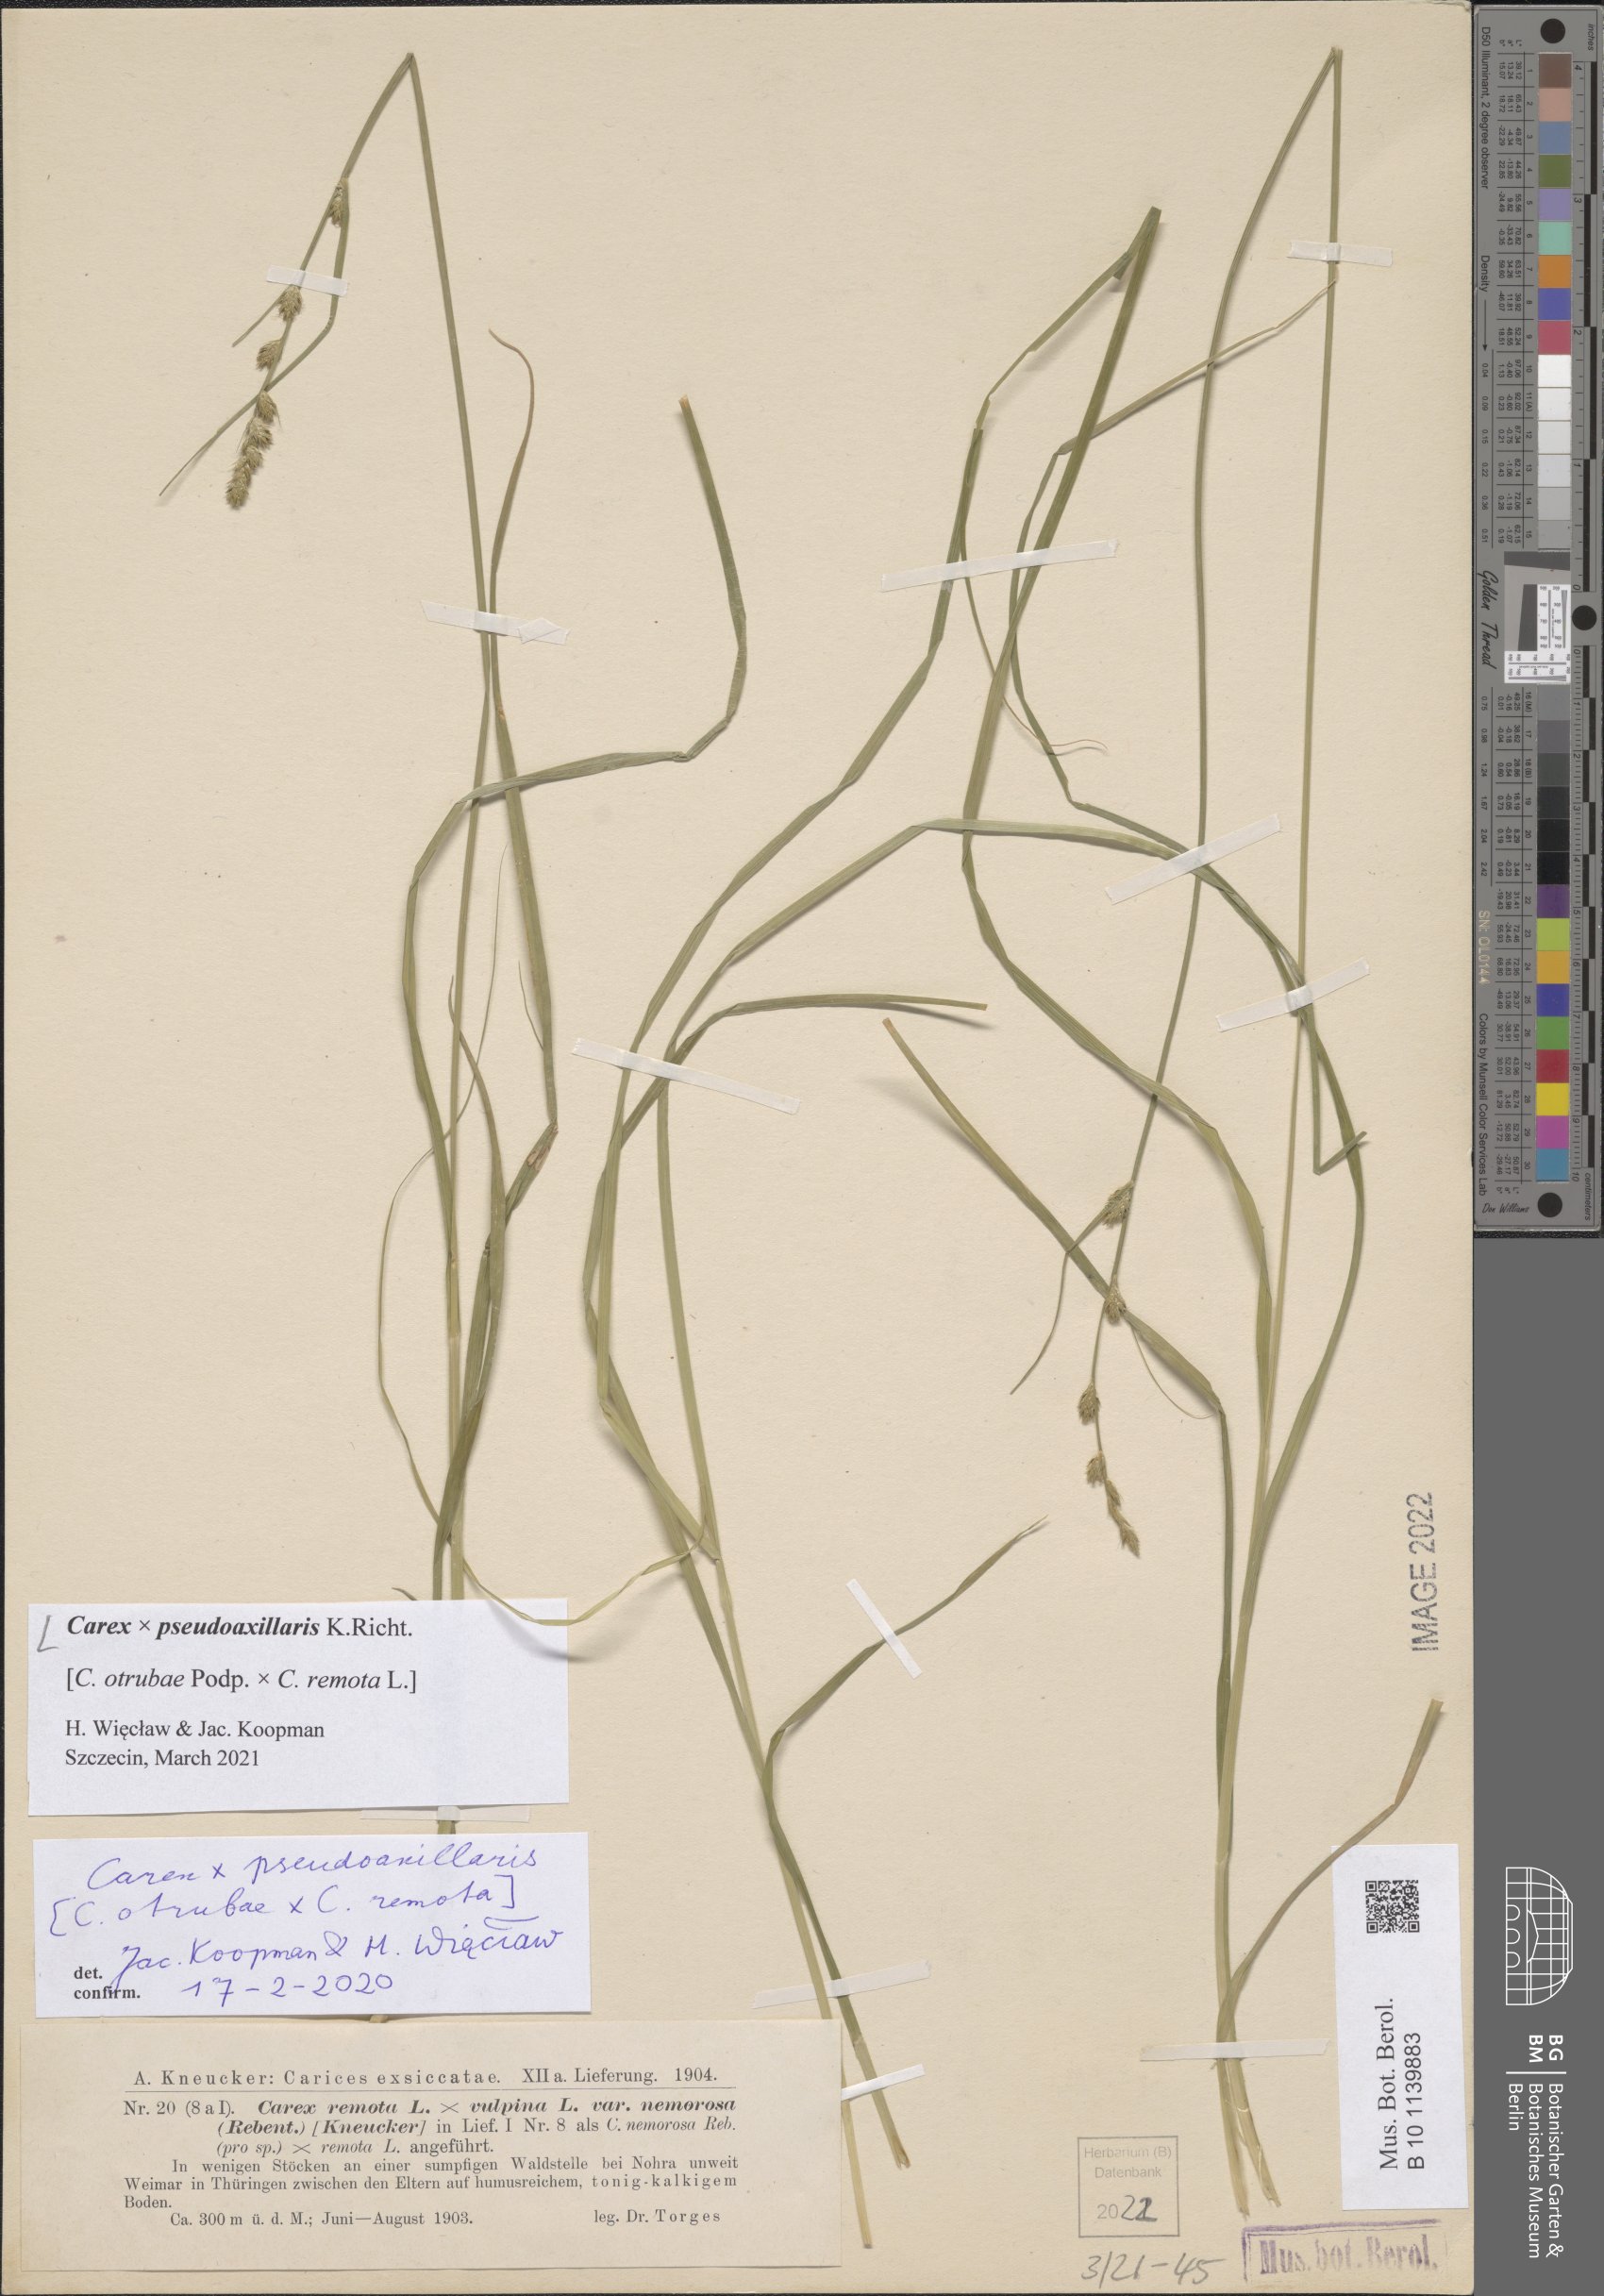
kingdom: Plantae
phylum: Tracheophyta
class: Liliopsida
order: Poales
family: Cyperaceae
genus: Carex
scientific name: Carex pseudoaxillaris
